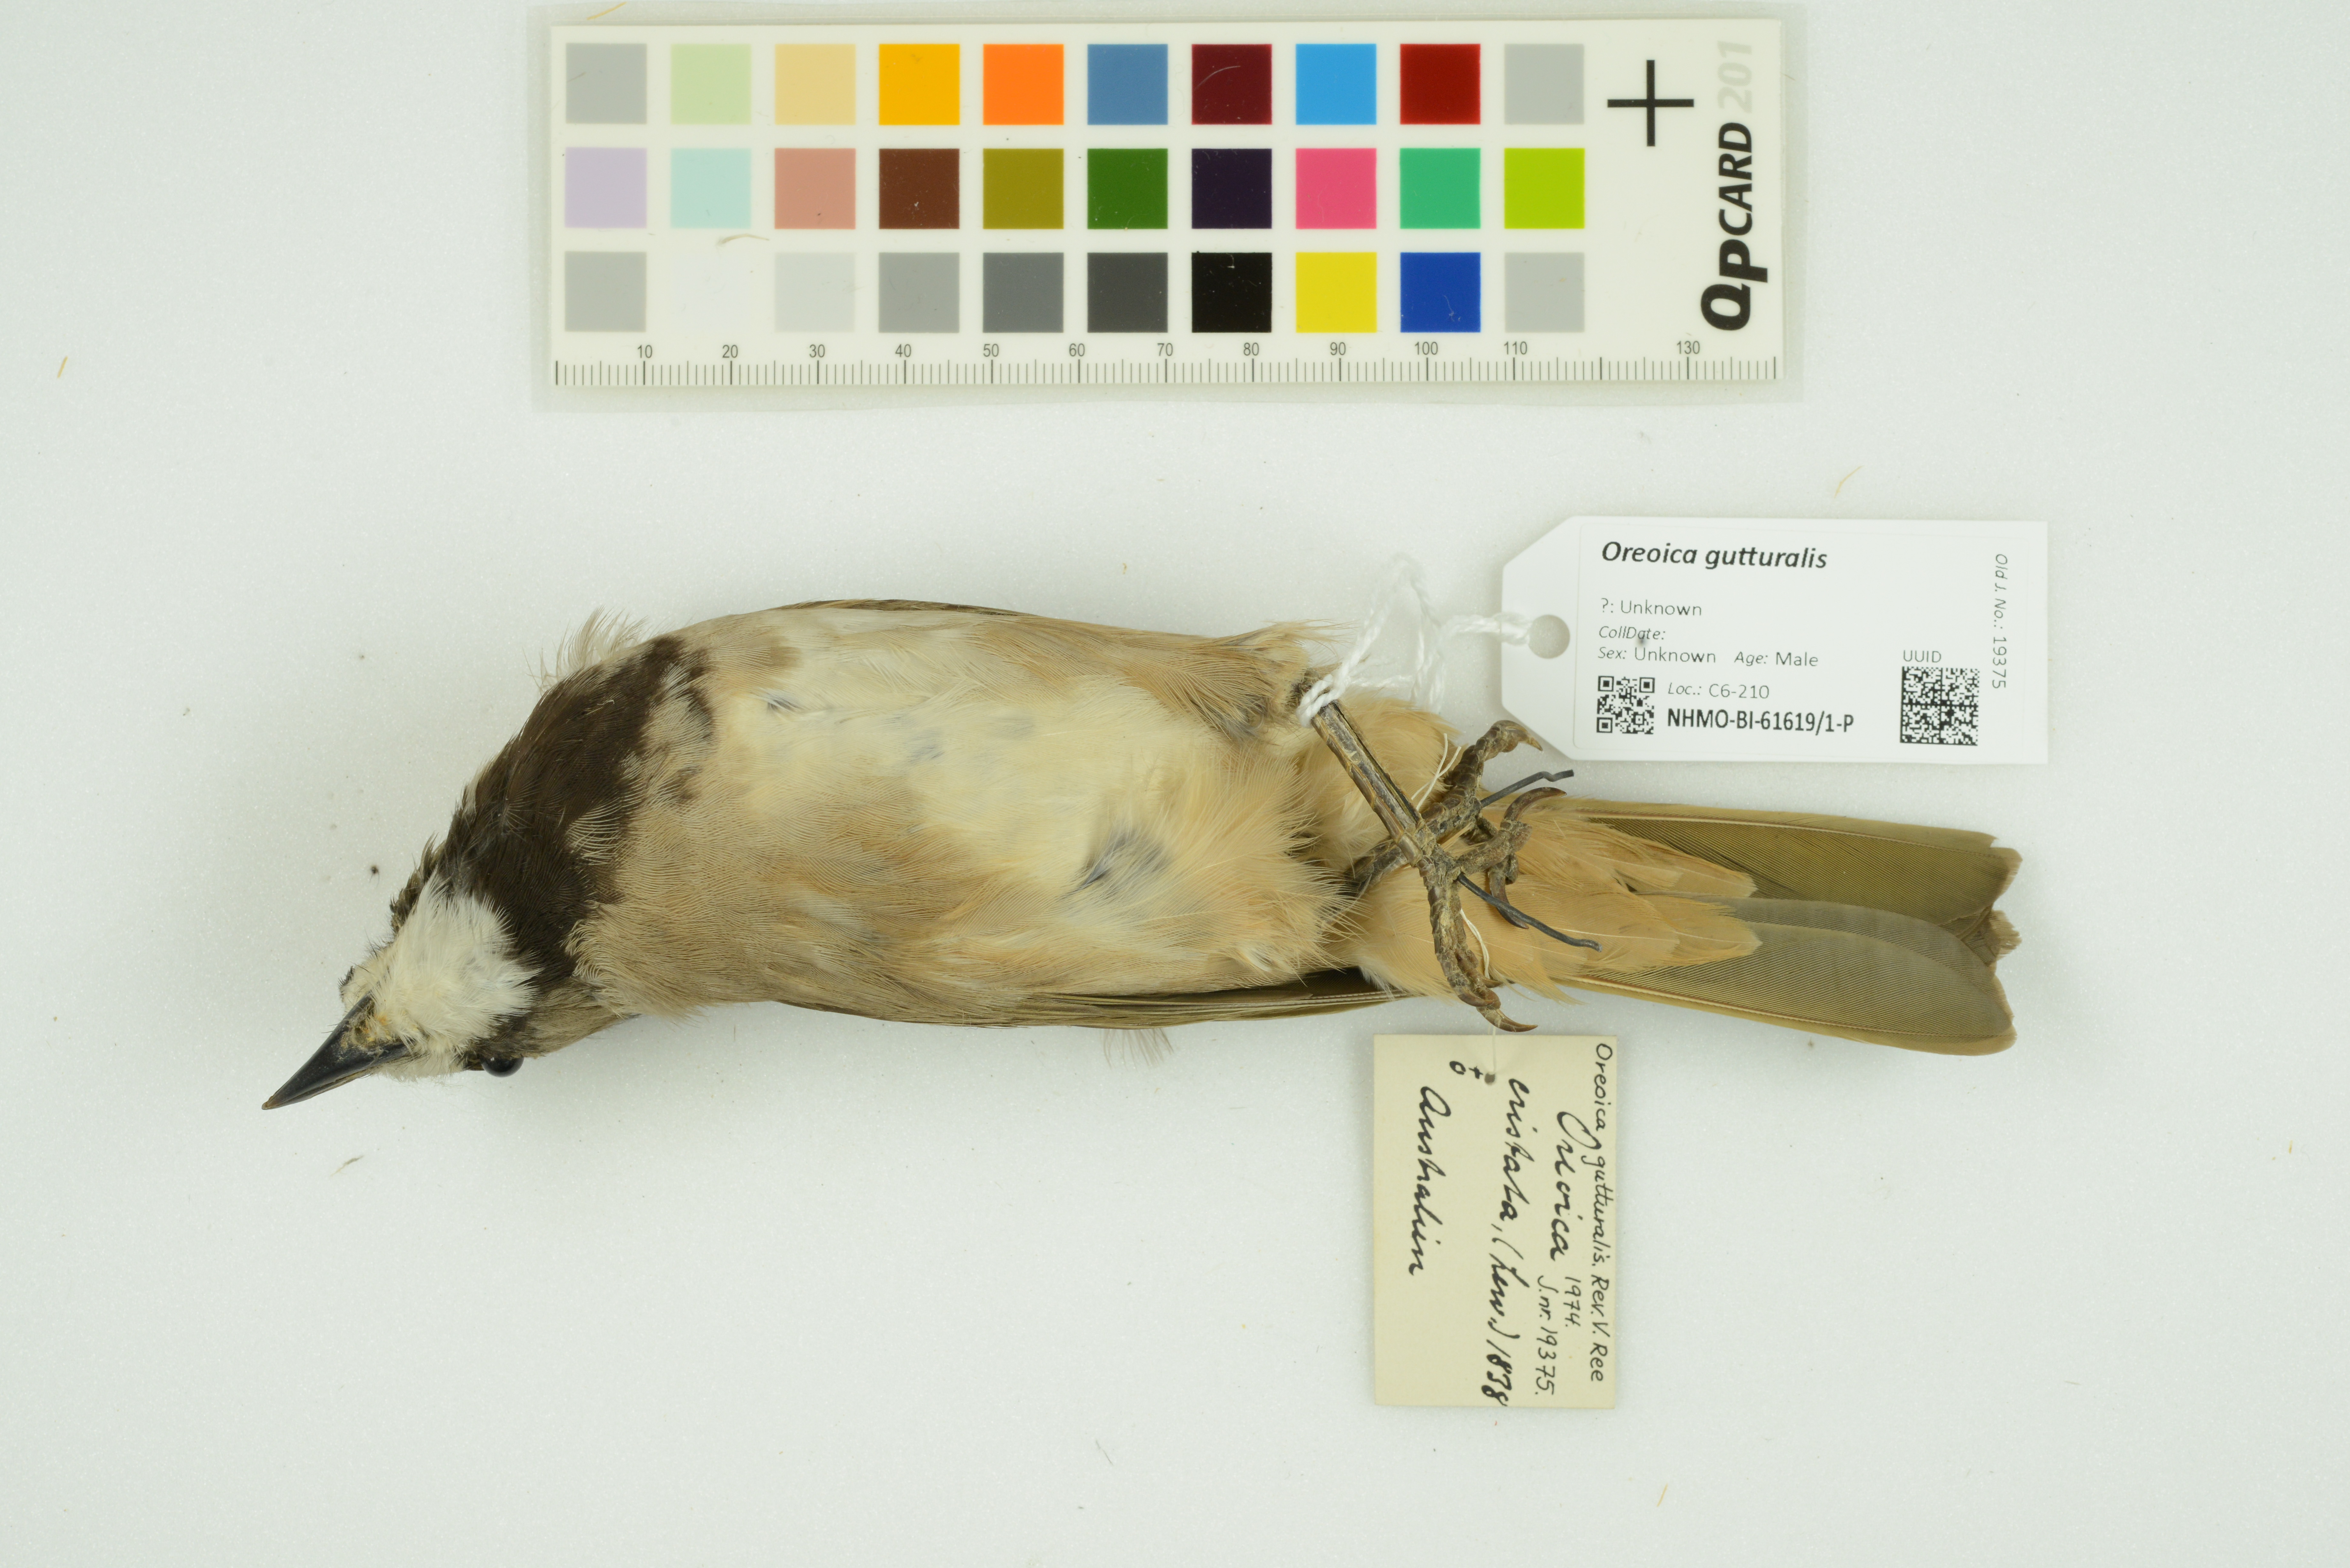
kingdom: Animalia
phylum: Chordata
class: Aves
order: Passeriformes
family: Oreoicidae
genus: Oreoica
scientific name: Oreoica gutturalis
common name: Crested bellbird
